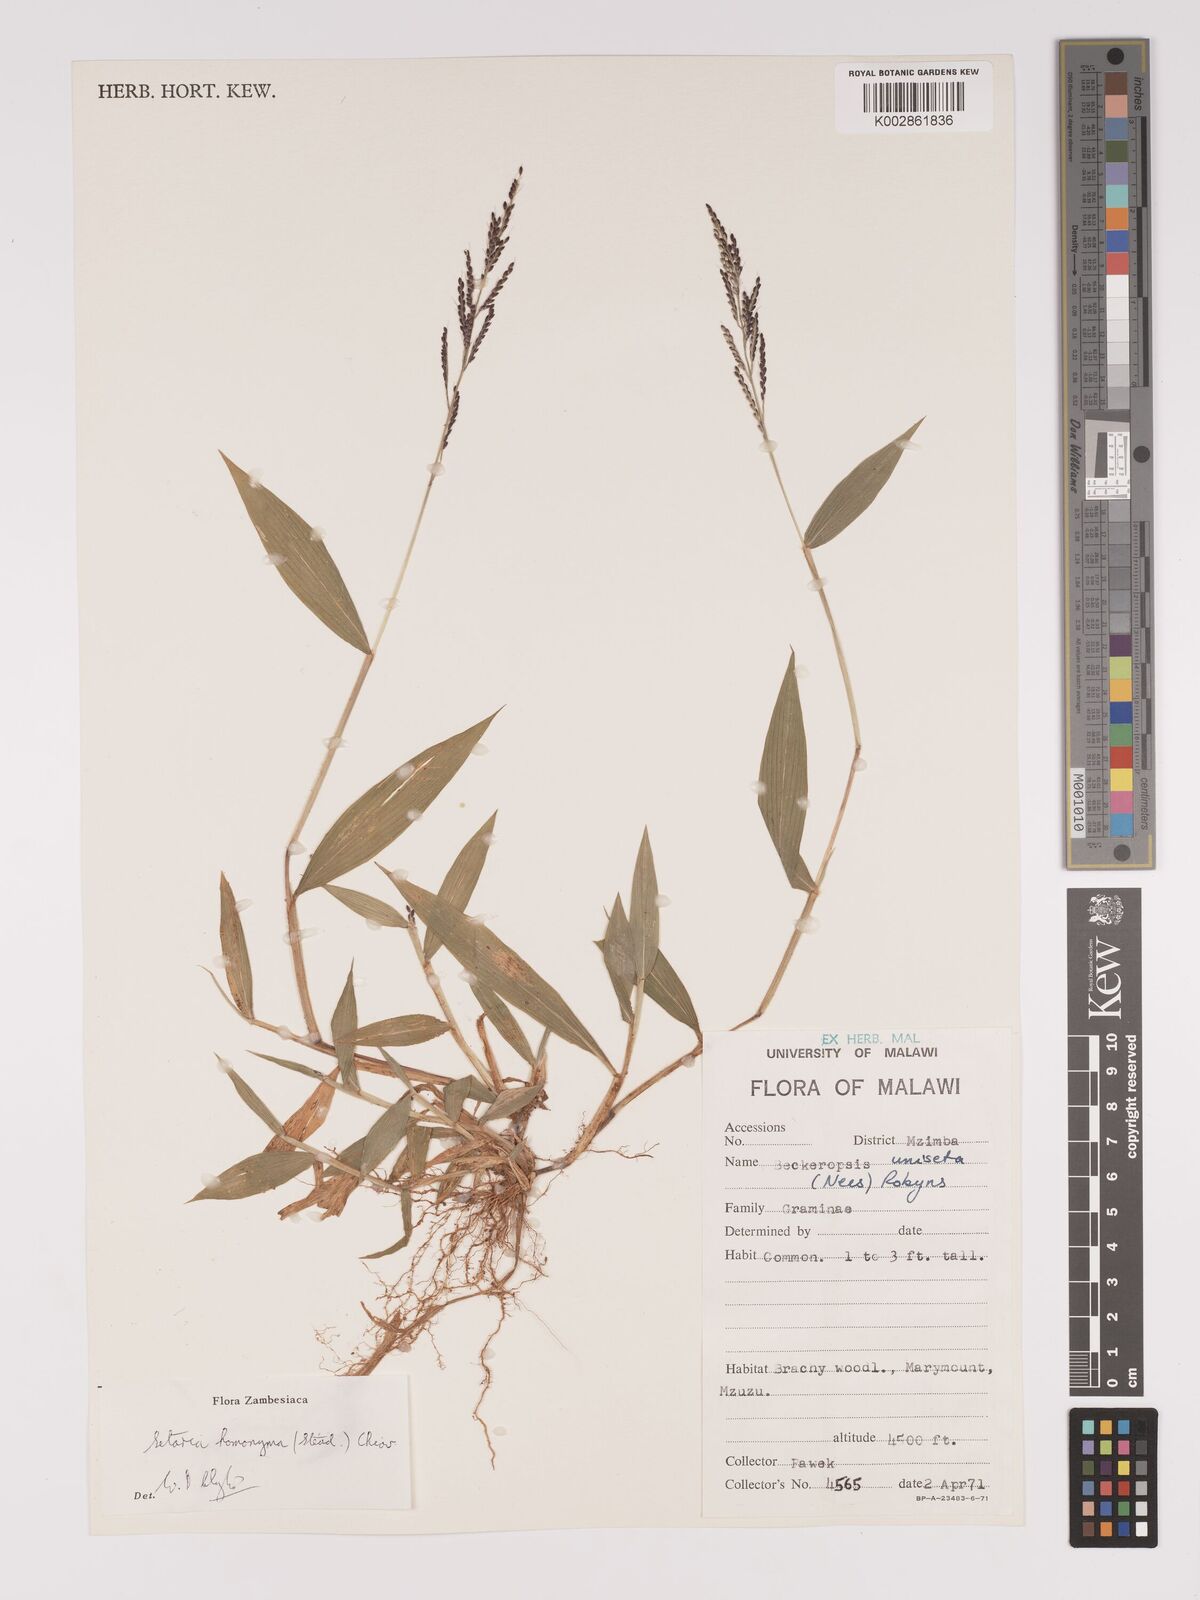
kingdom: Plantae
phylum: Tracheophyta
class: Liliopsida
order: Poales
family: Poaceae
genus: Setaria
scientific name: Setaria homonyma
